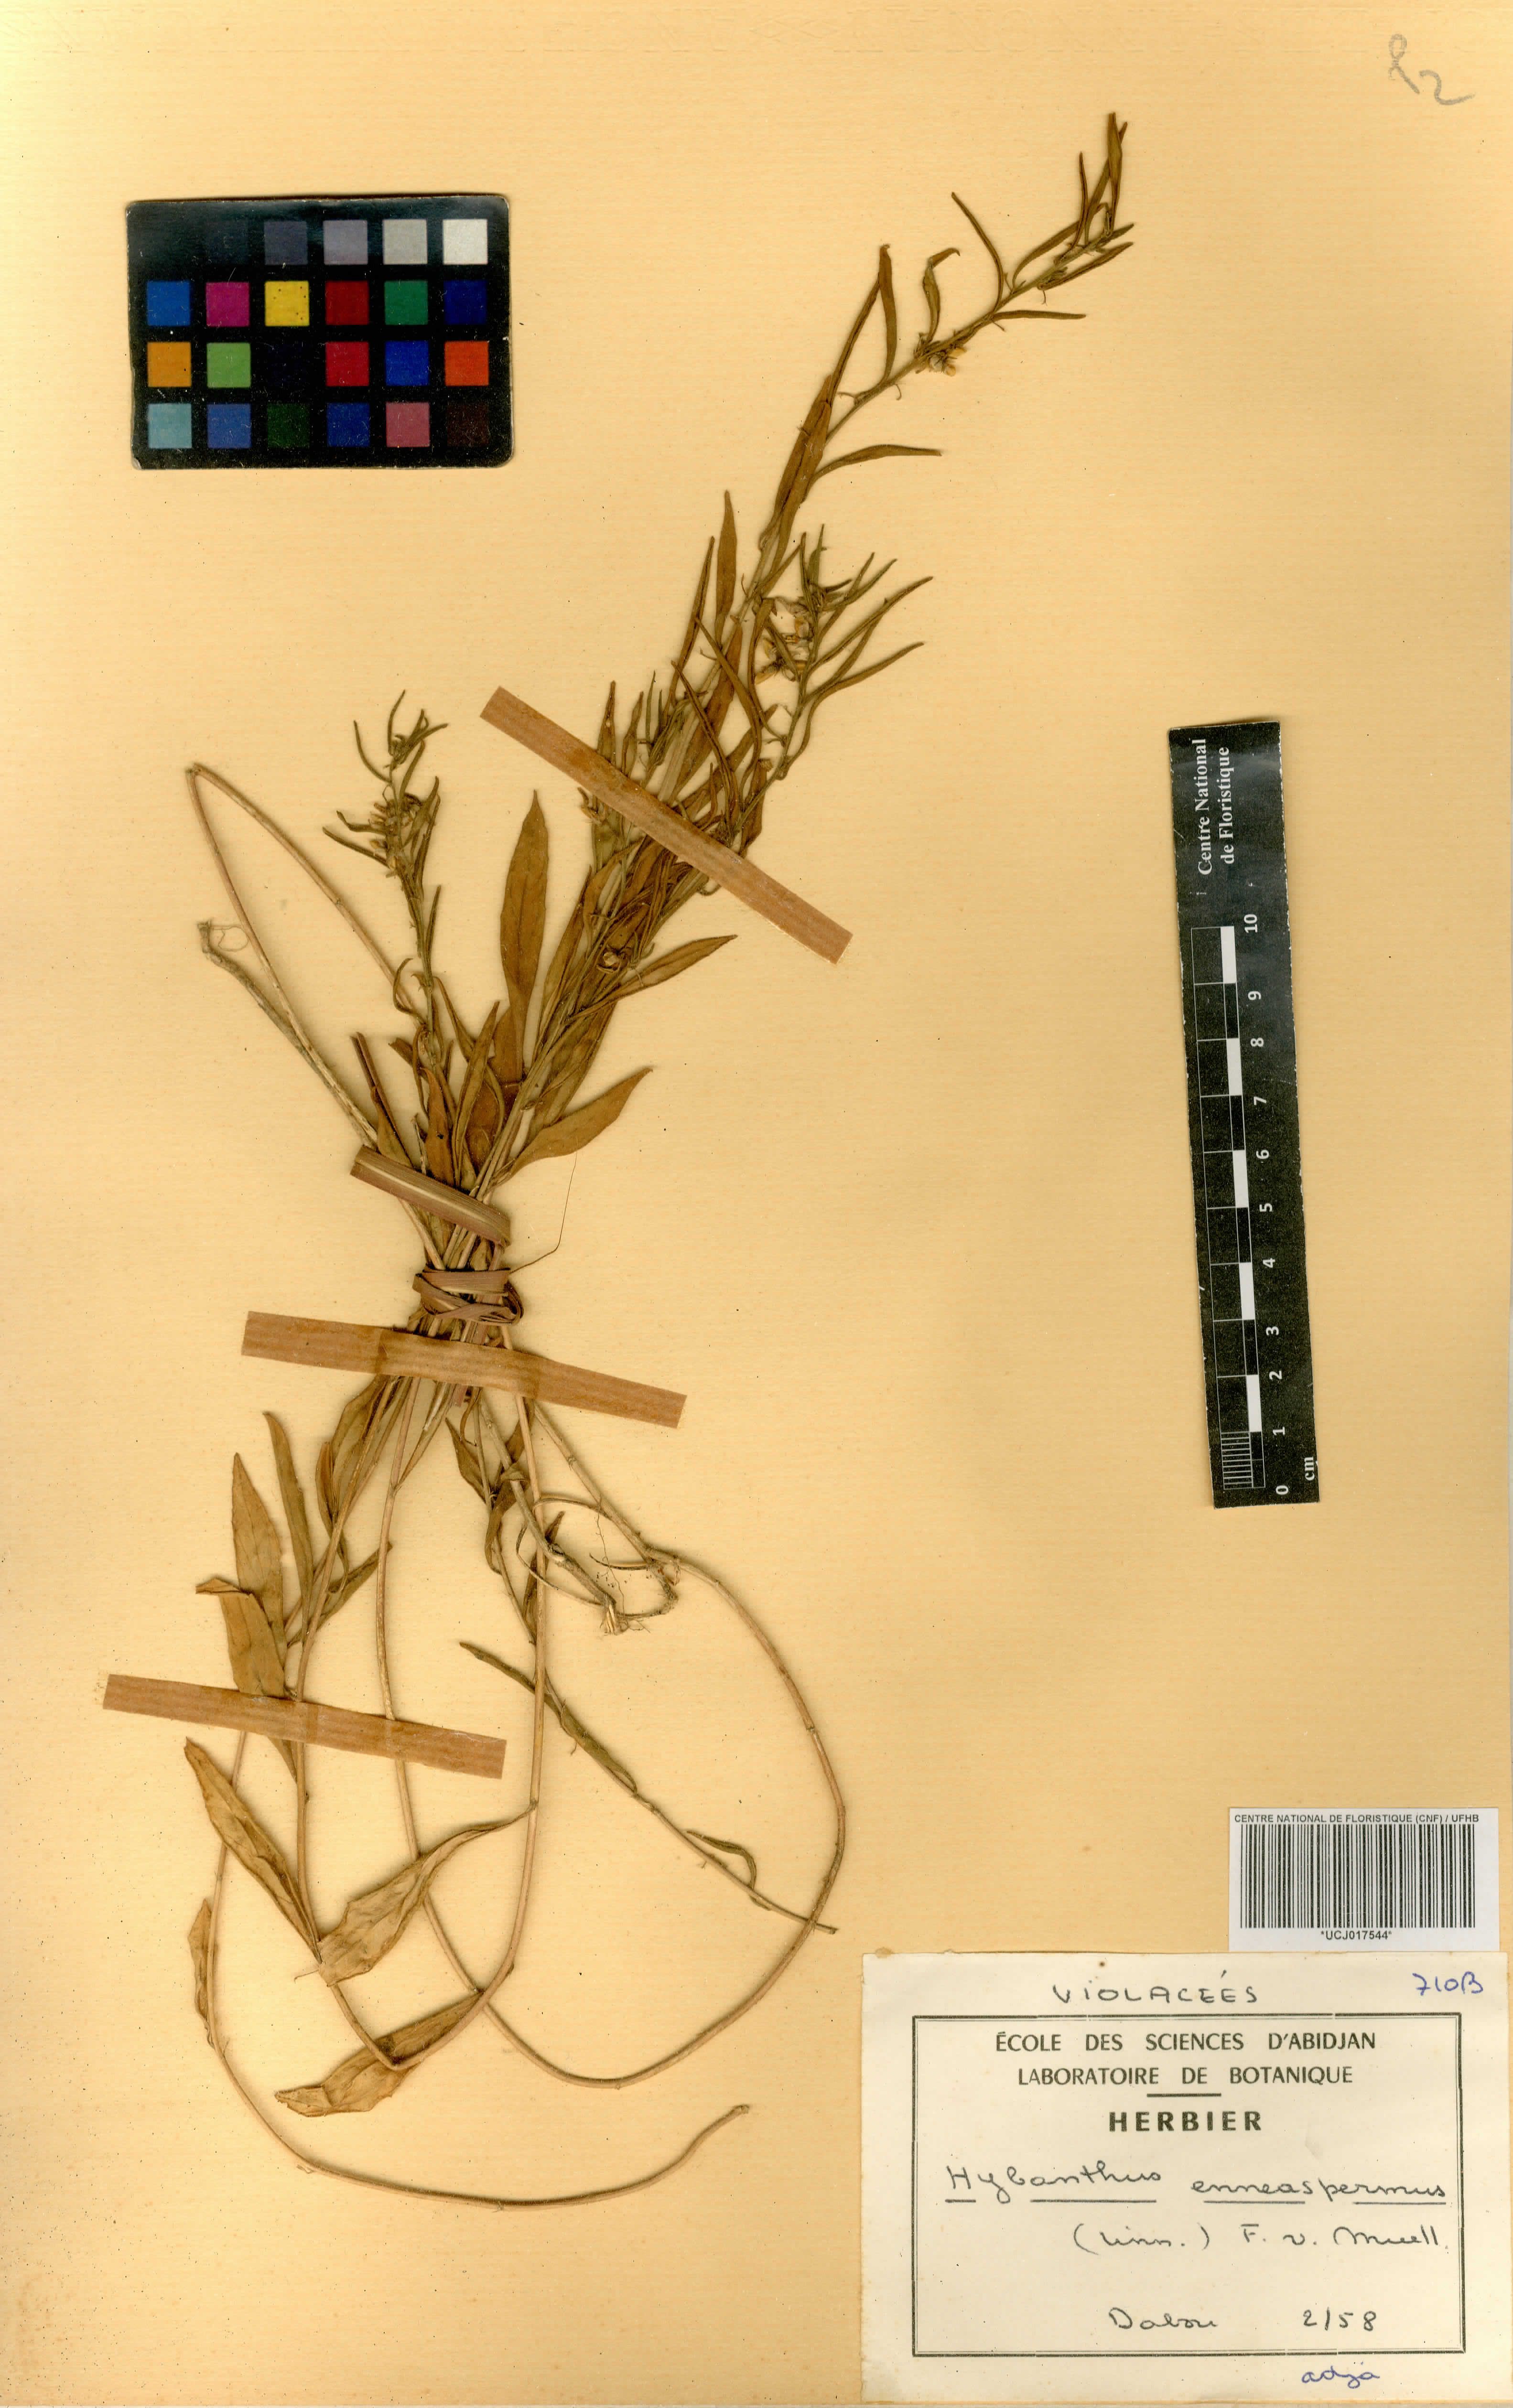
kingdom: Plantae
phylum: Tracheophyta
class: Magnoliopsida
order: Malpighiales
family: Violaceae
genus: Pigea
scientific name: Pigea enneasperma
